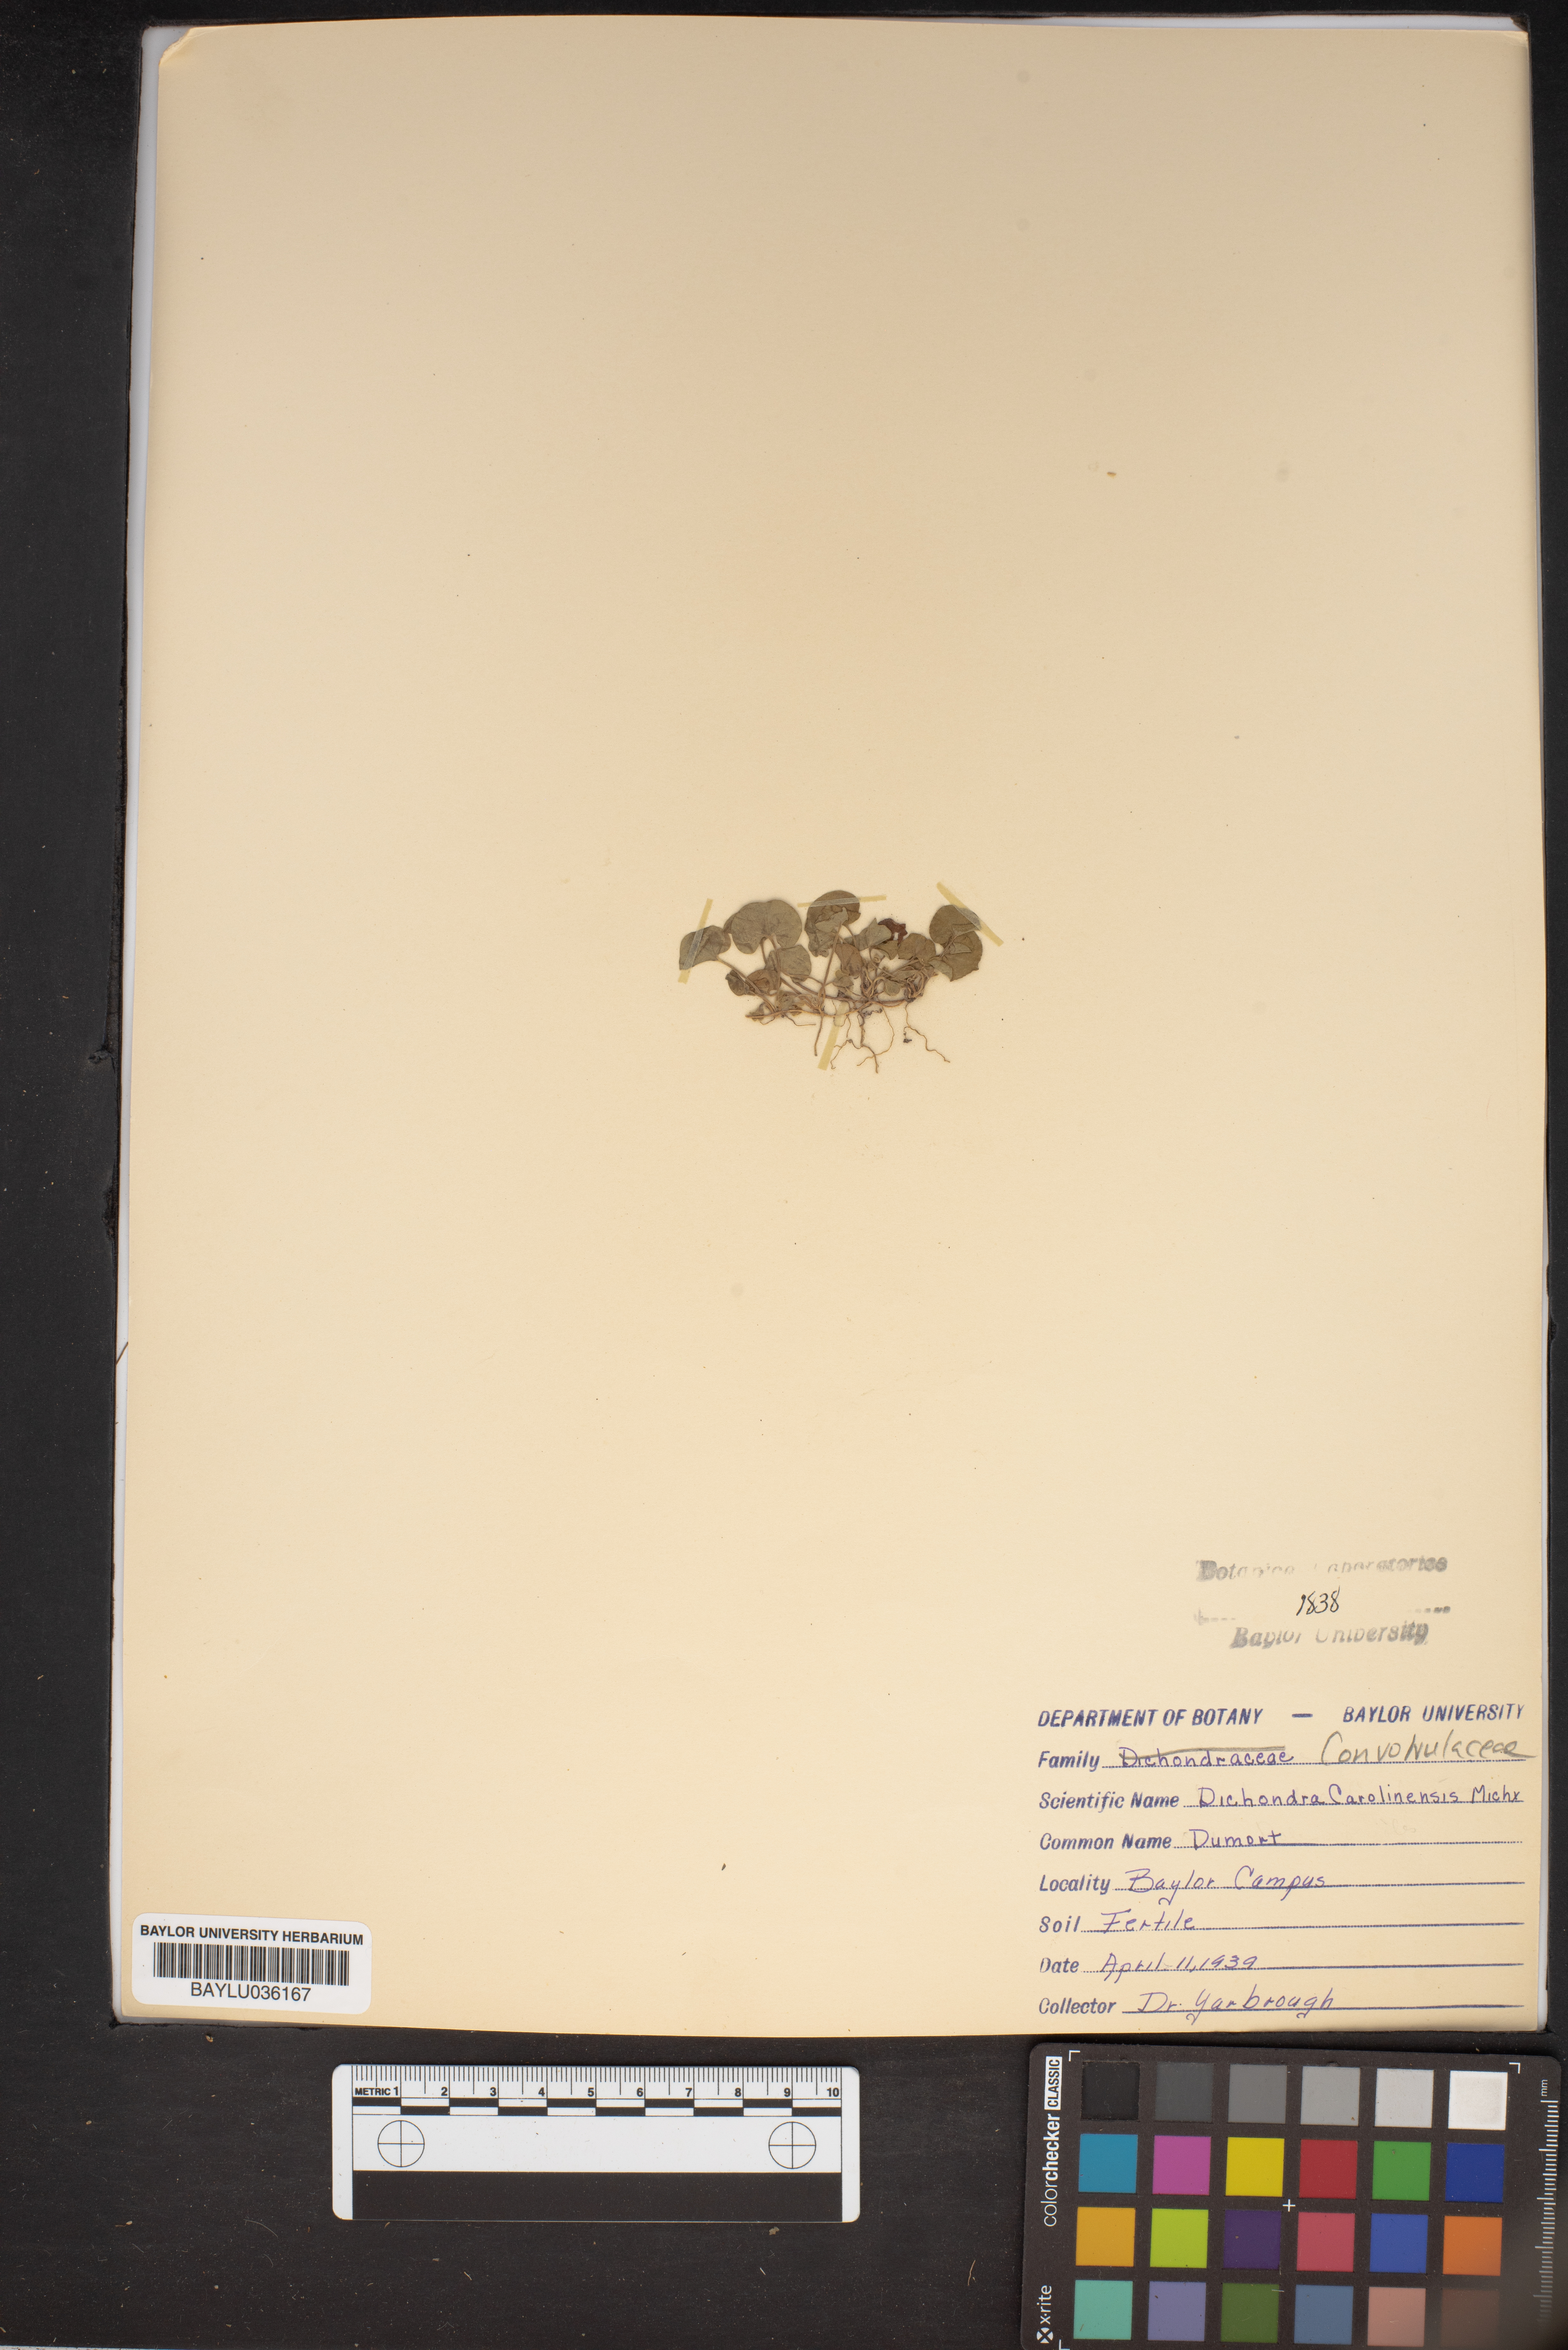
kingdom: Plantae
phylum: Tracheophyta
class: Magnoliopsida
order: Solanales
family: Convolvulaceae
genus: Dichondra
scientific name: Dichondra carolinensis
